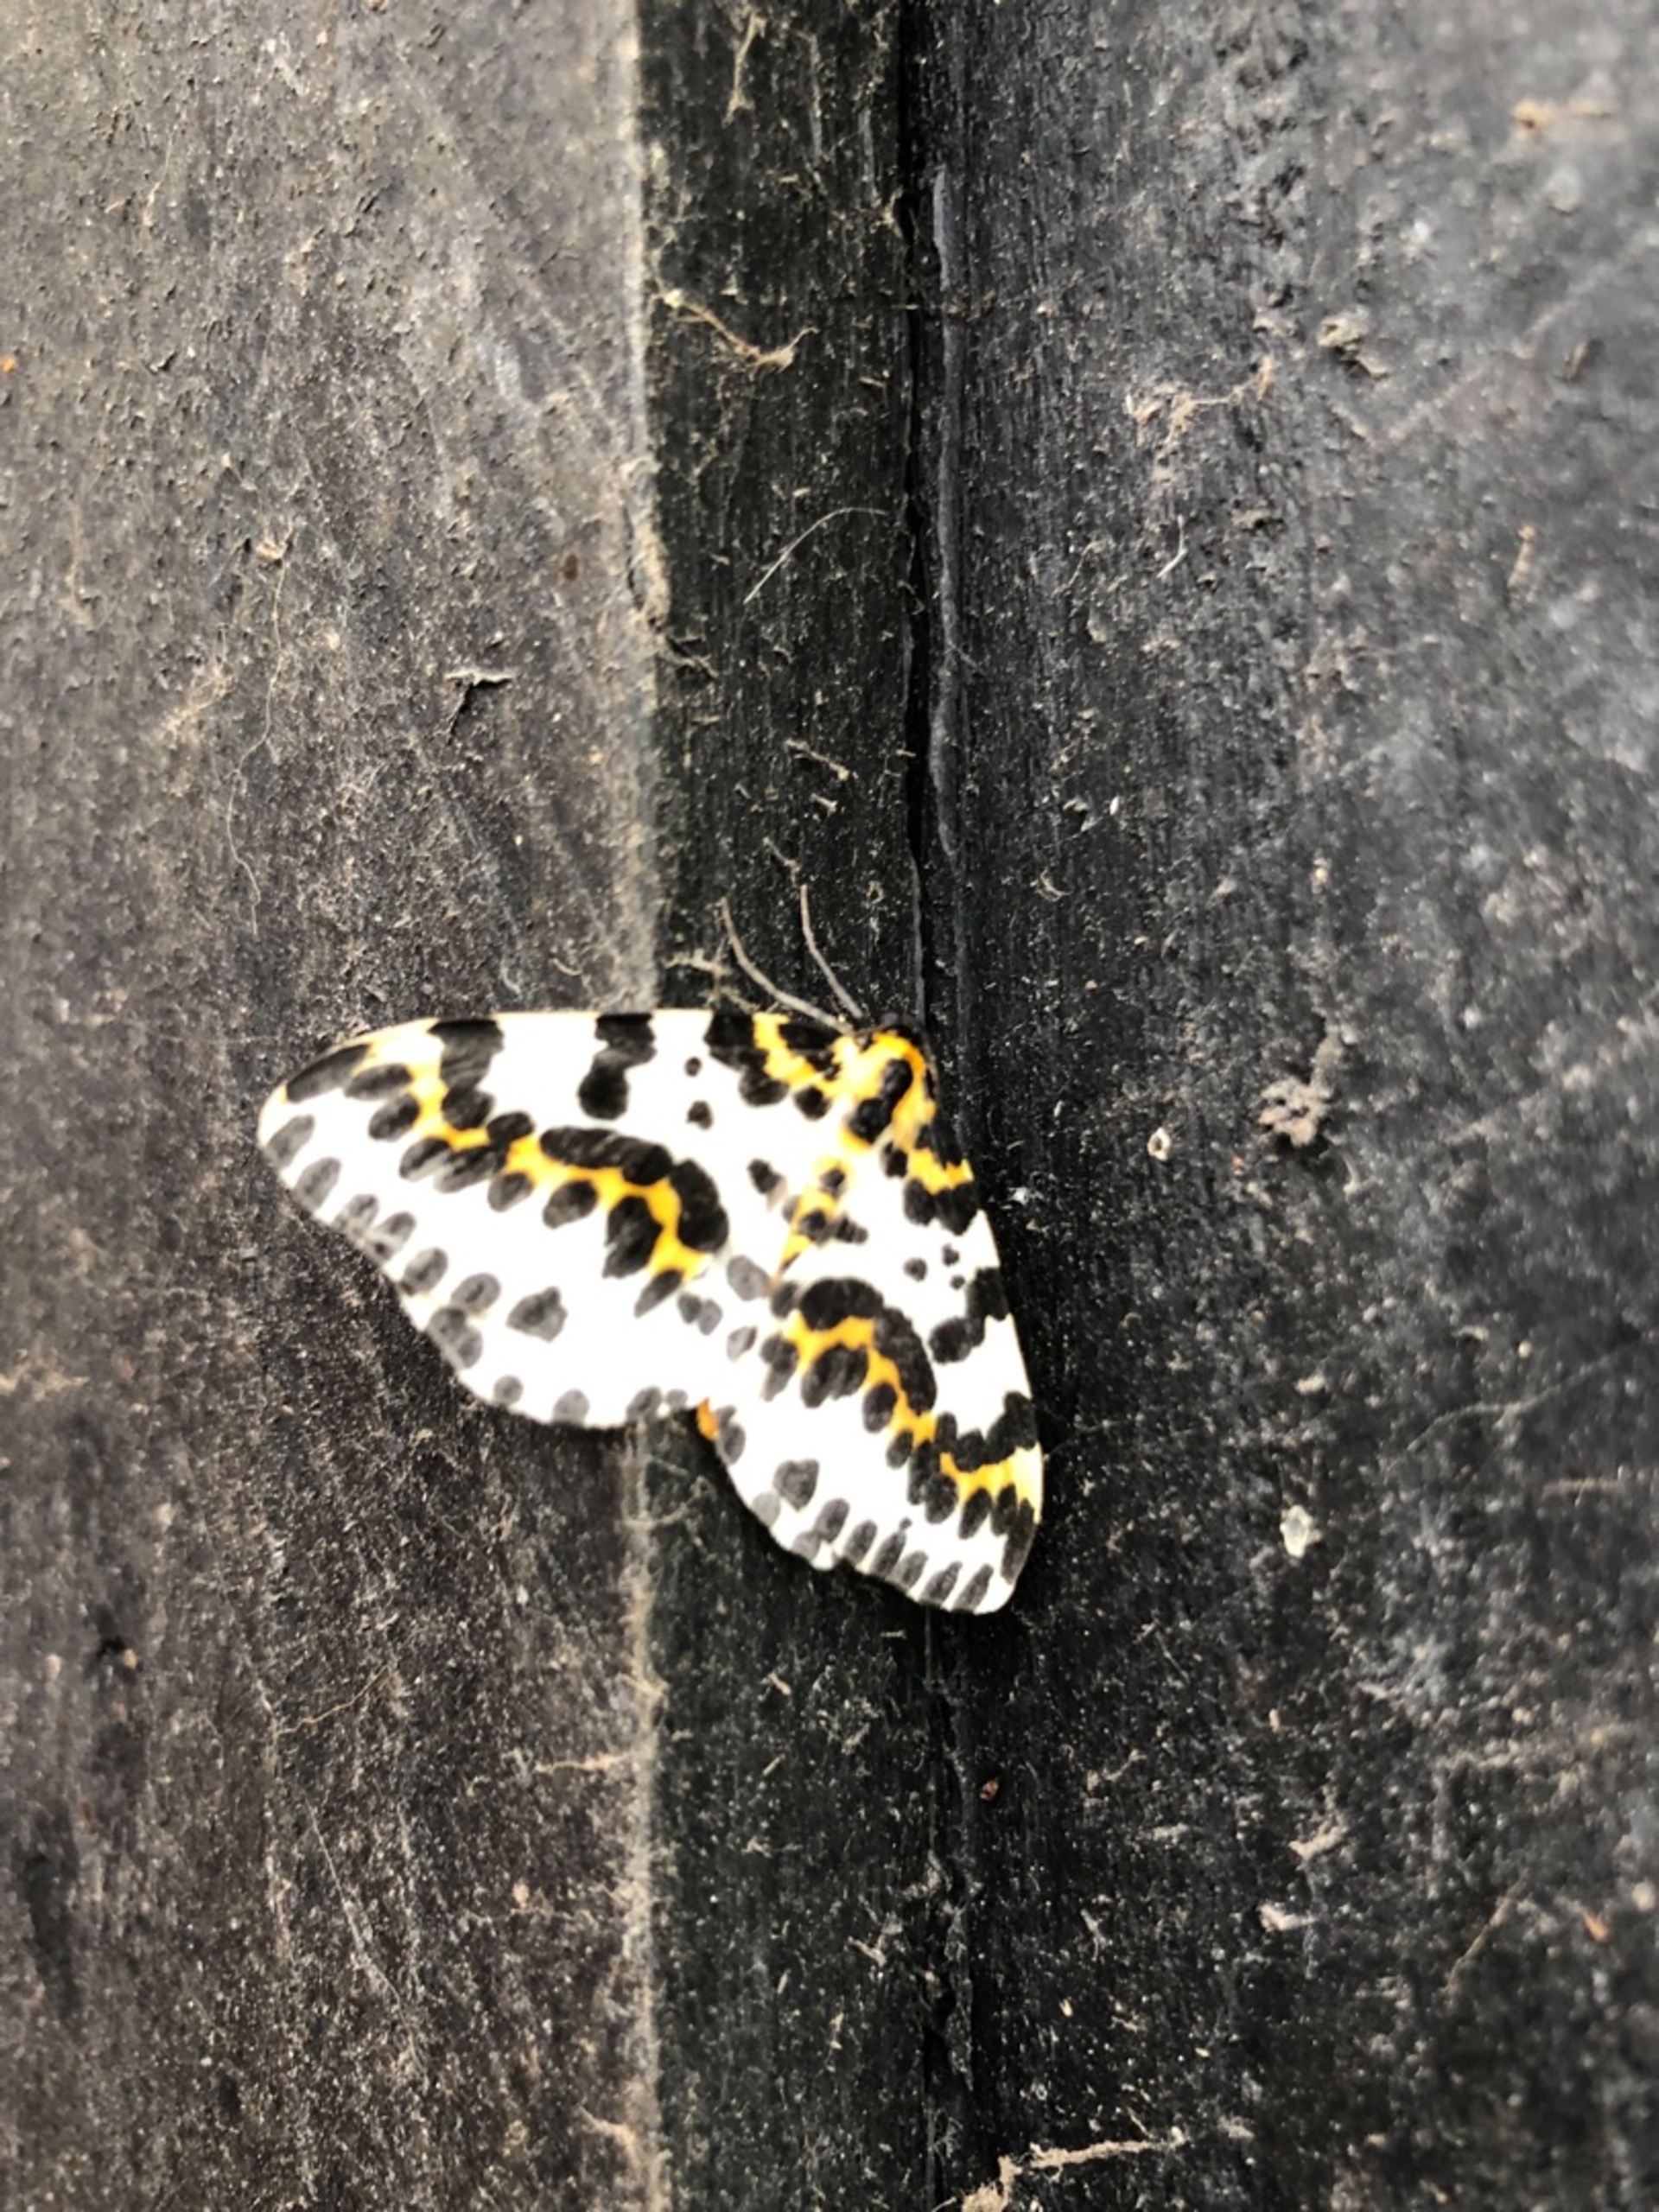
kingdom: Animalia
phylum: Arthropoda
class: Insecta
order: Lepidoptera
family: Geometridae
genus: Abraxas
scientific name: Abraxas grossulariata
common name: Harlekin
